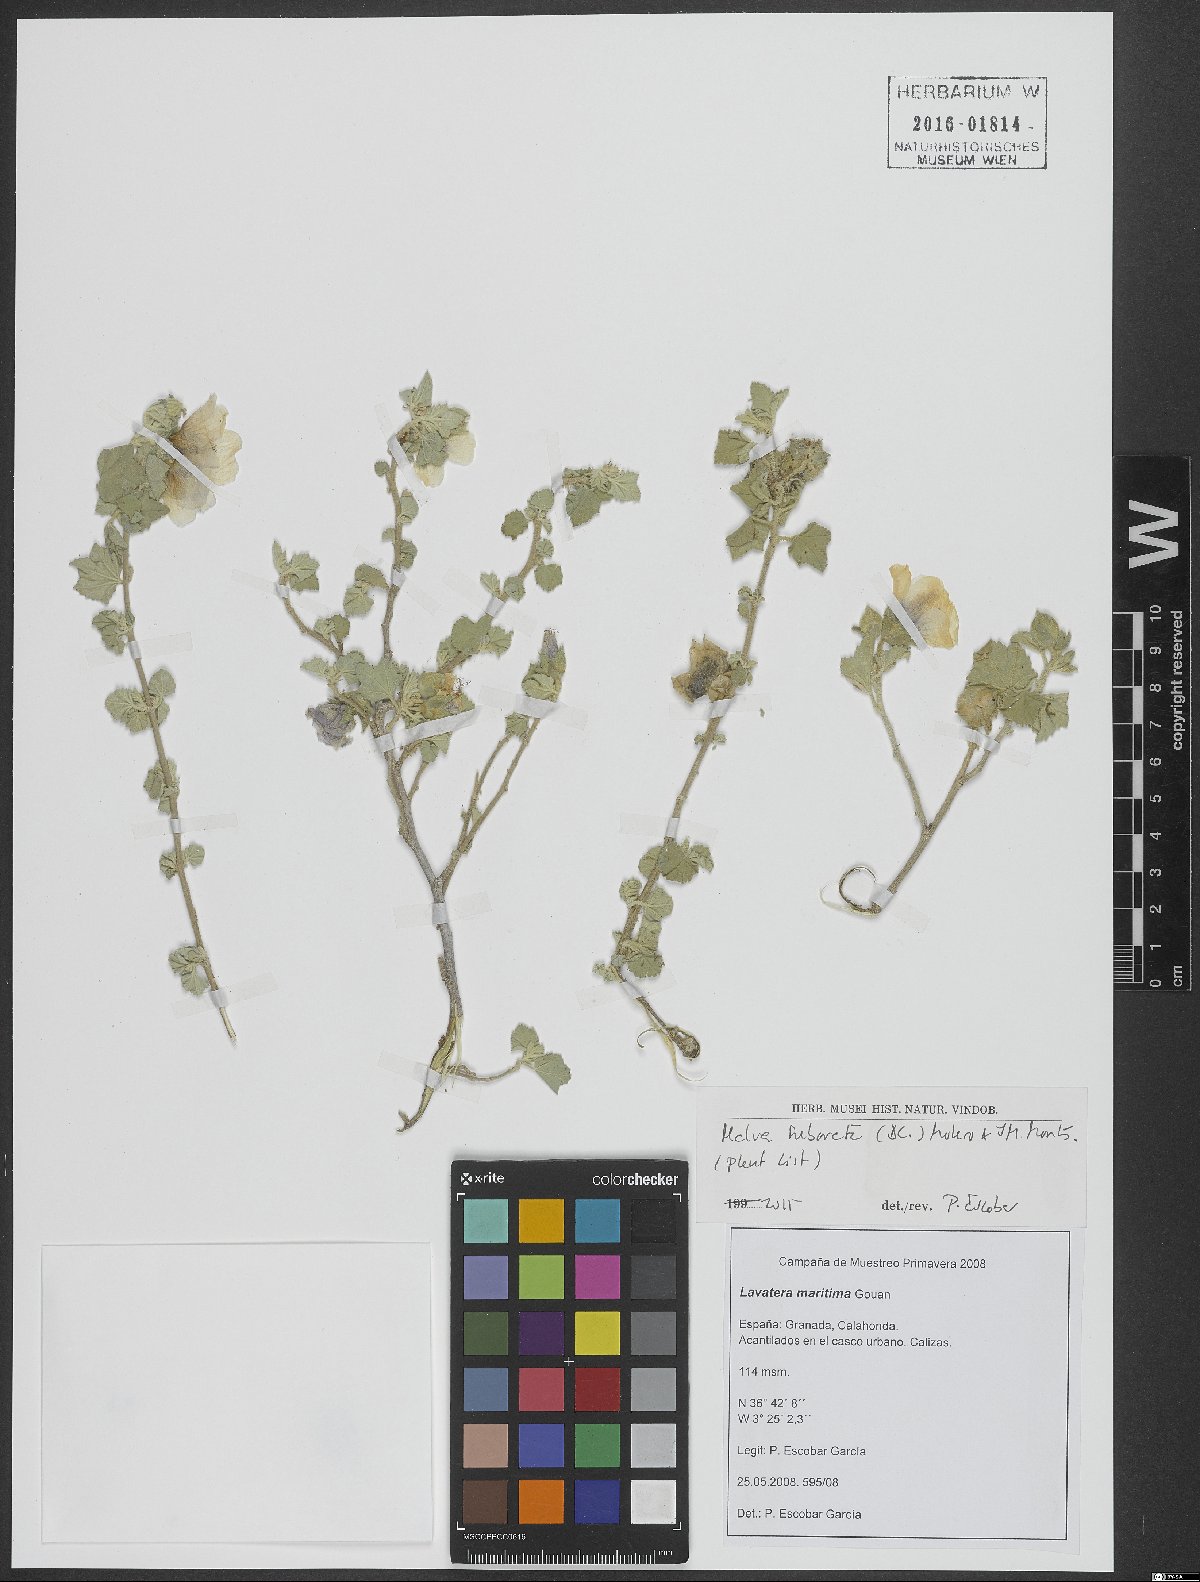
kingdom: Plantae
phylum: Tracheophyta
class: Magnoliopsida
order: Malvales
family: Malvaceae
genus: Malva
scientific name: Malva subovata
